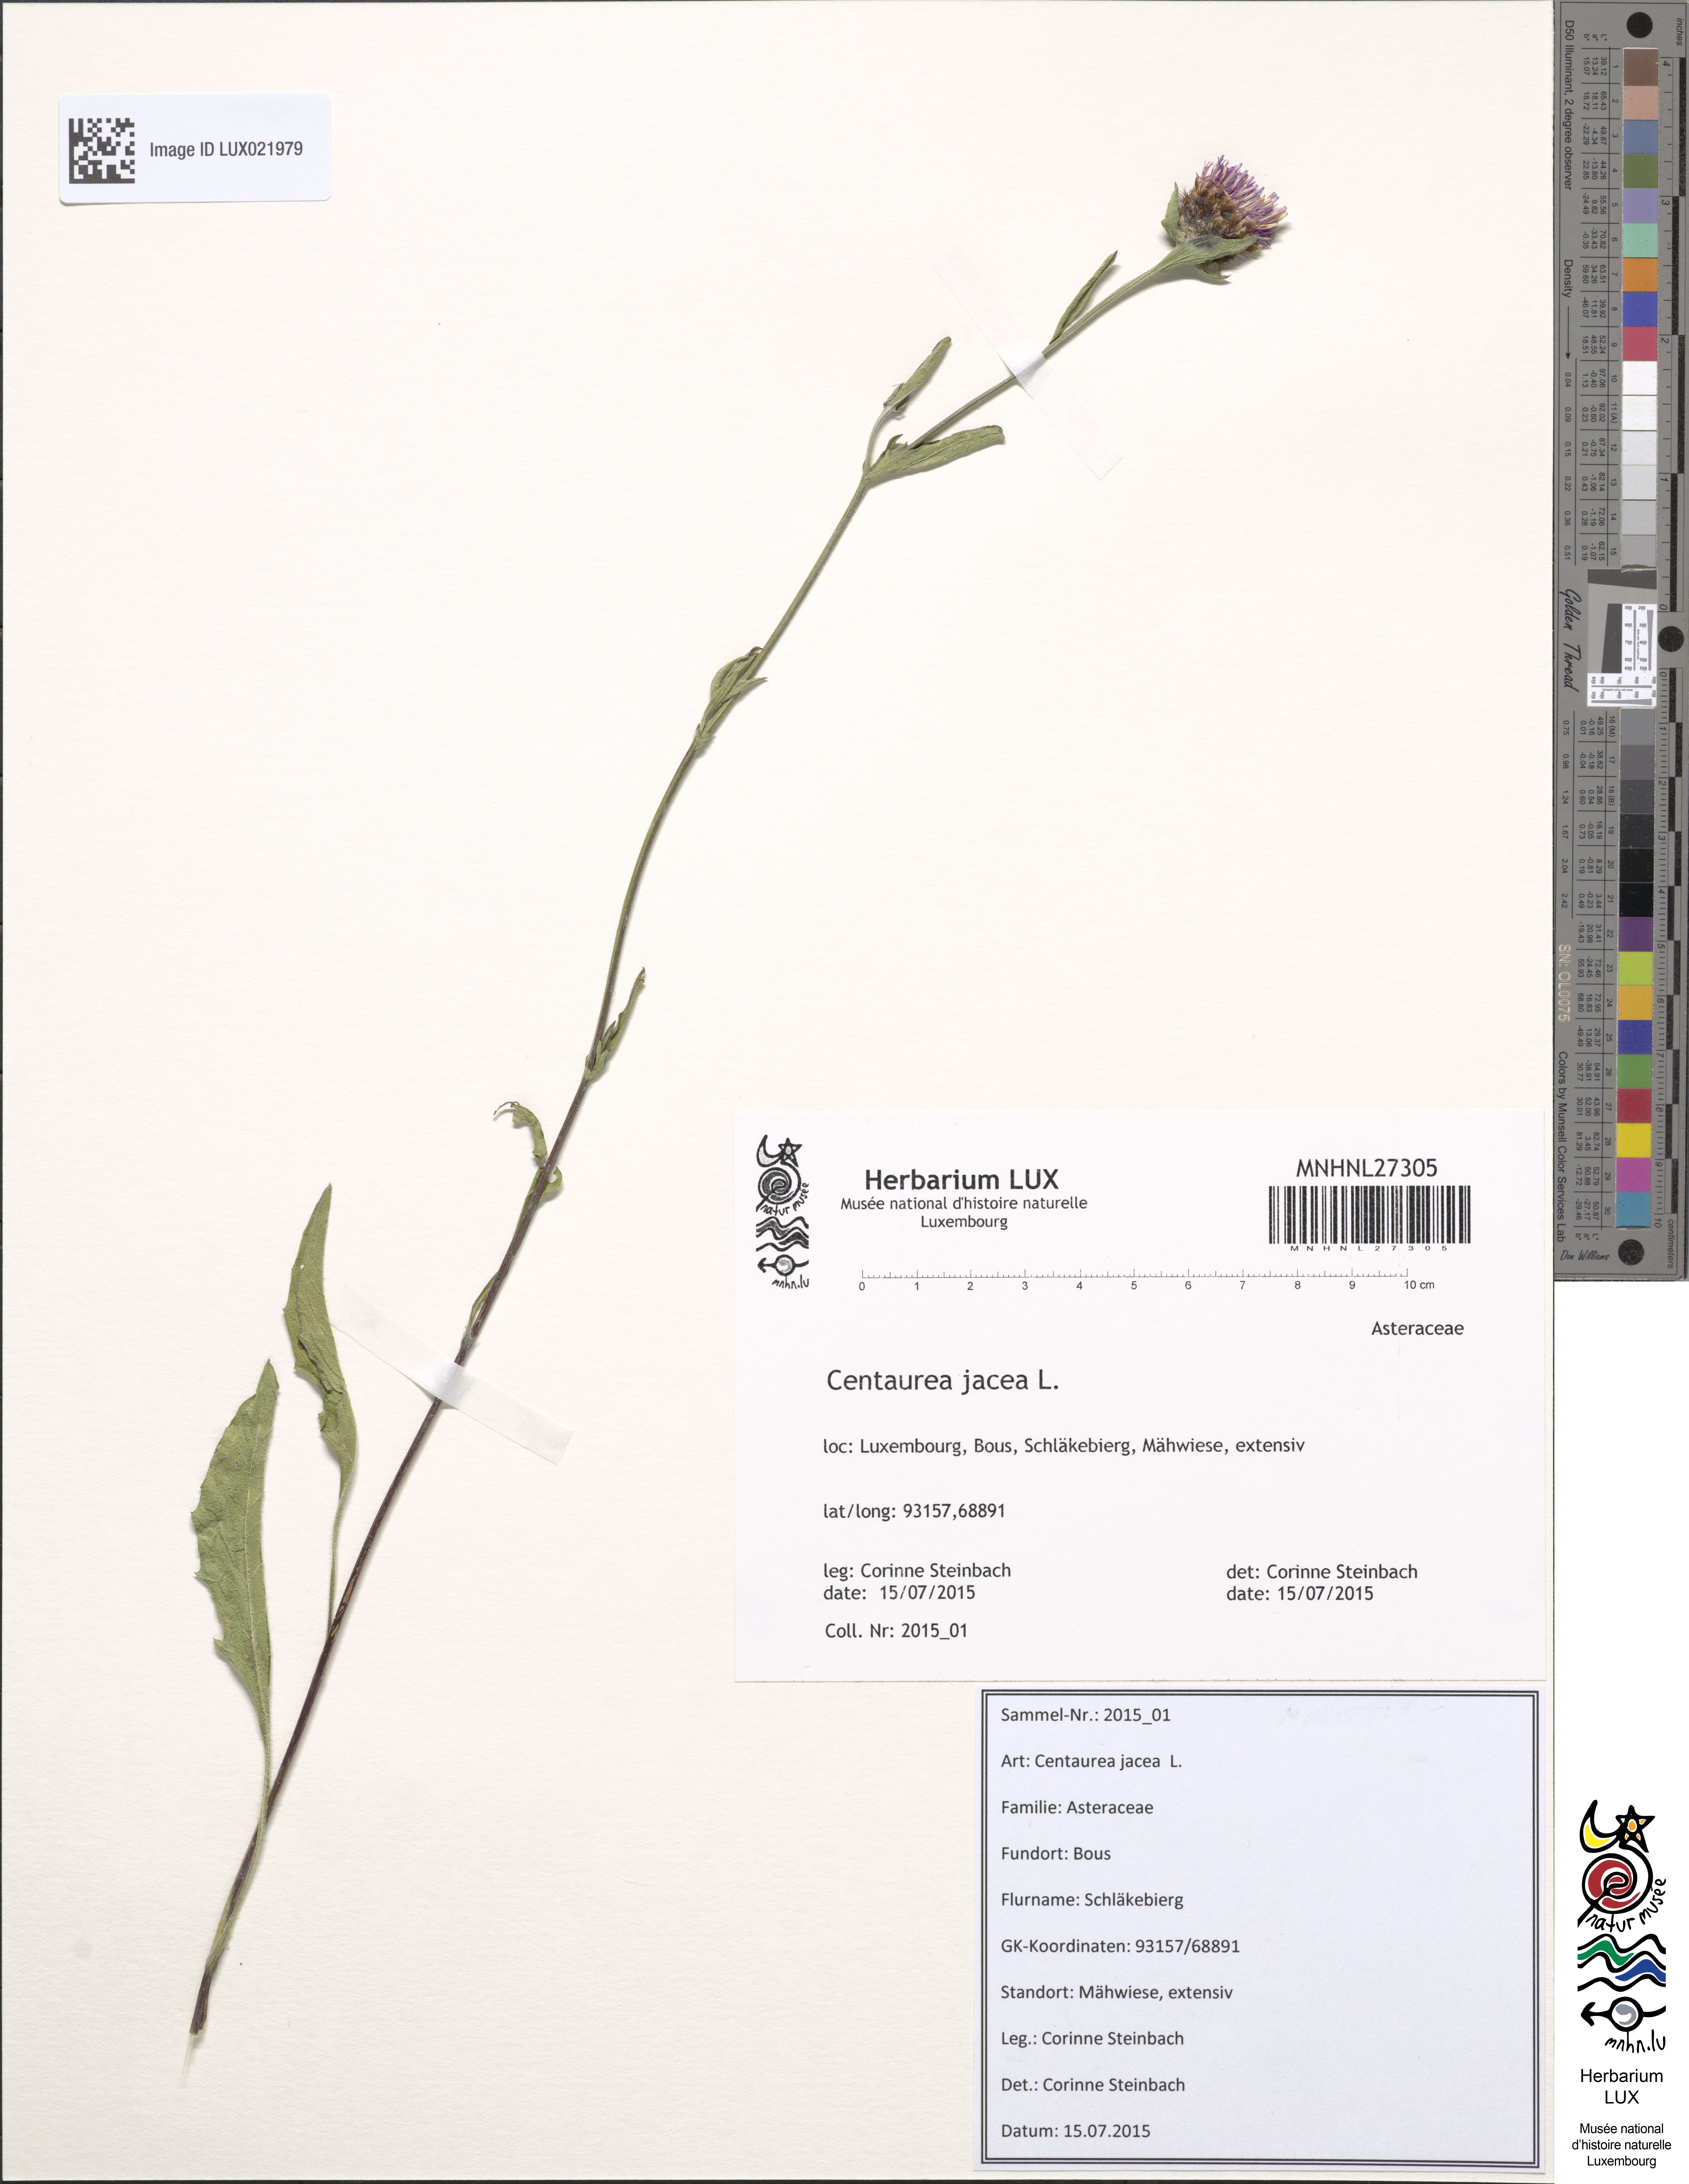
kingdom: Plantae
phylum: Tracheophyta
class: Magnoliopsida
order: Asterales
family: Asteraceae
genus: Centaurea
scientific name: Centaurea jacea
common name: Brown knapweed
